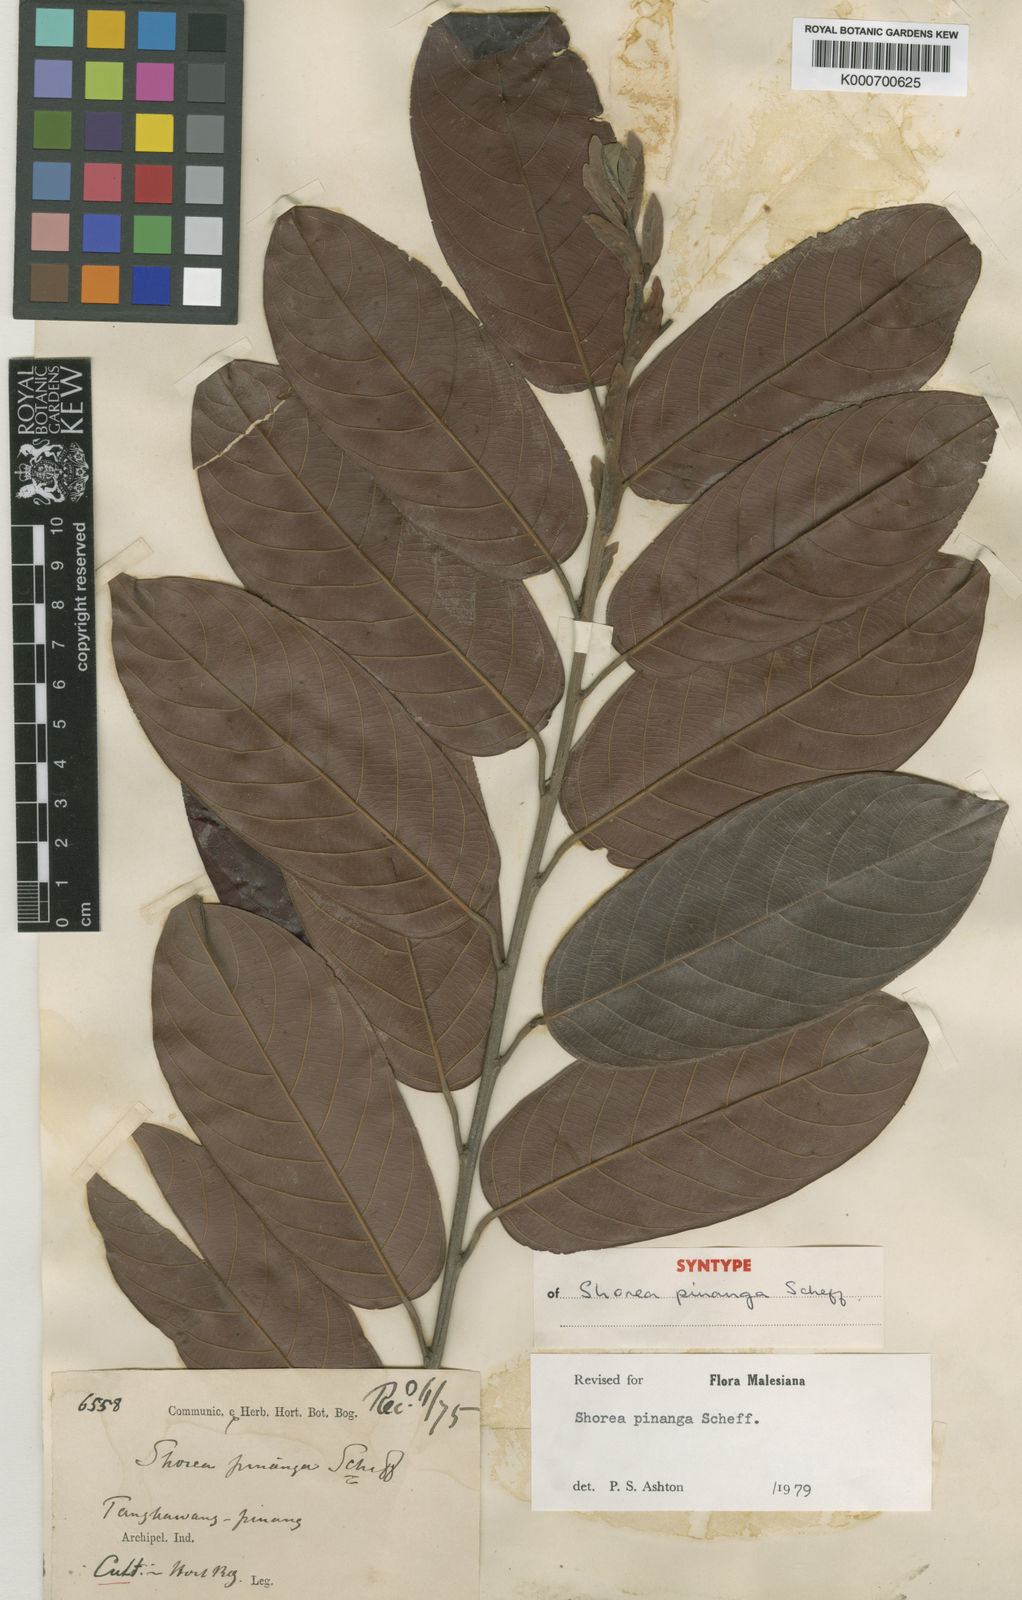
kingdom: Plantae
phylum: Tracheophyta
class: Magnoliopsida
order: Malvales
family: Dipterocarpaceae
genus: Shorea
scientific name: Shorea pinanga
